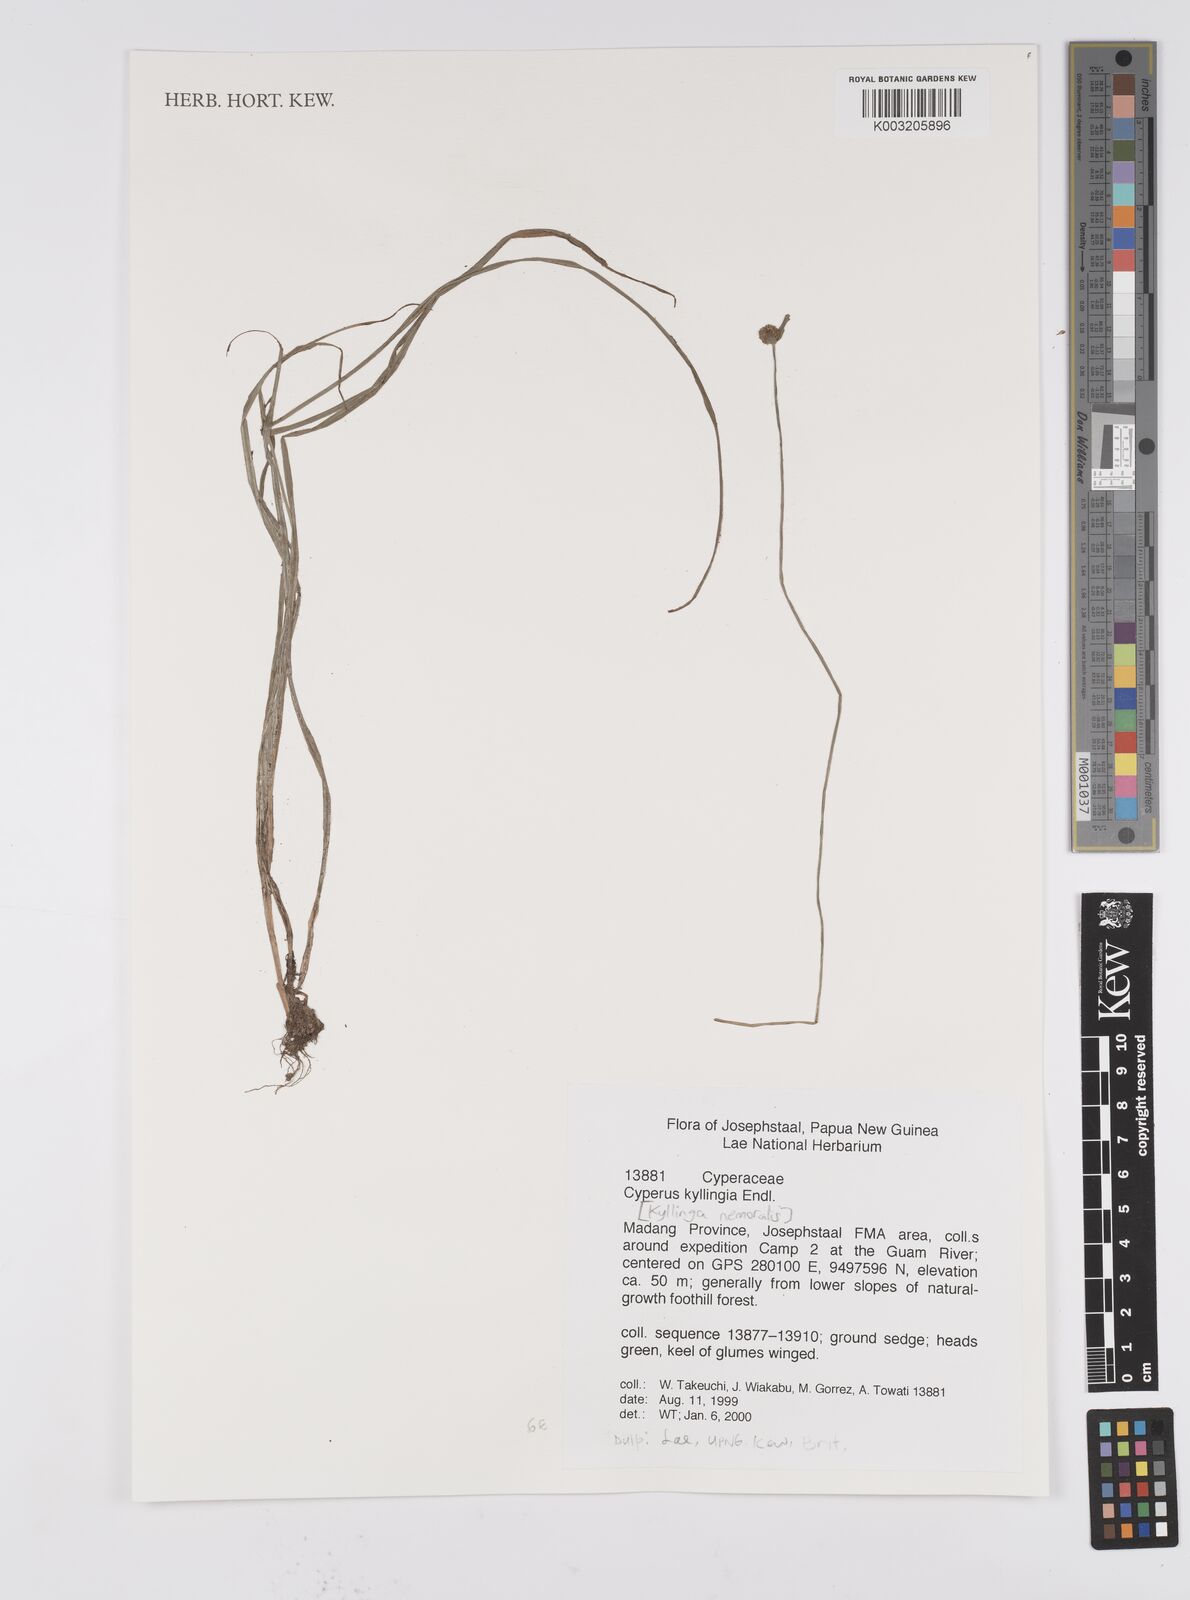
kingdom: Plantae
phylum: Tracheophyta
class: Liliopsida
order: Poales
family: Cyperaceae
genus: Cyperus
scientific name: Cyperus nemoralis
